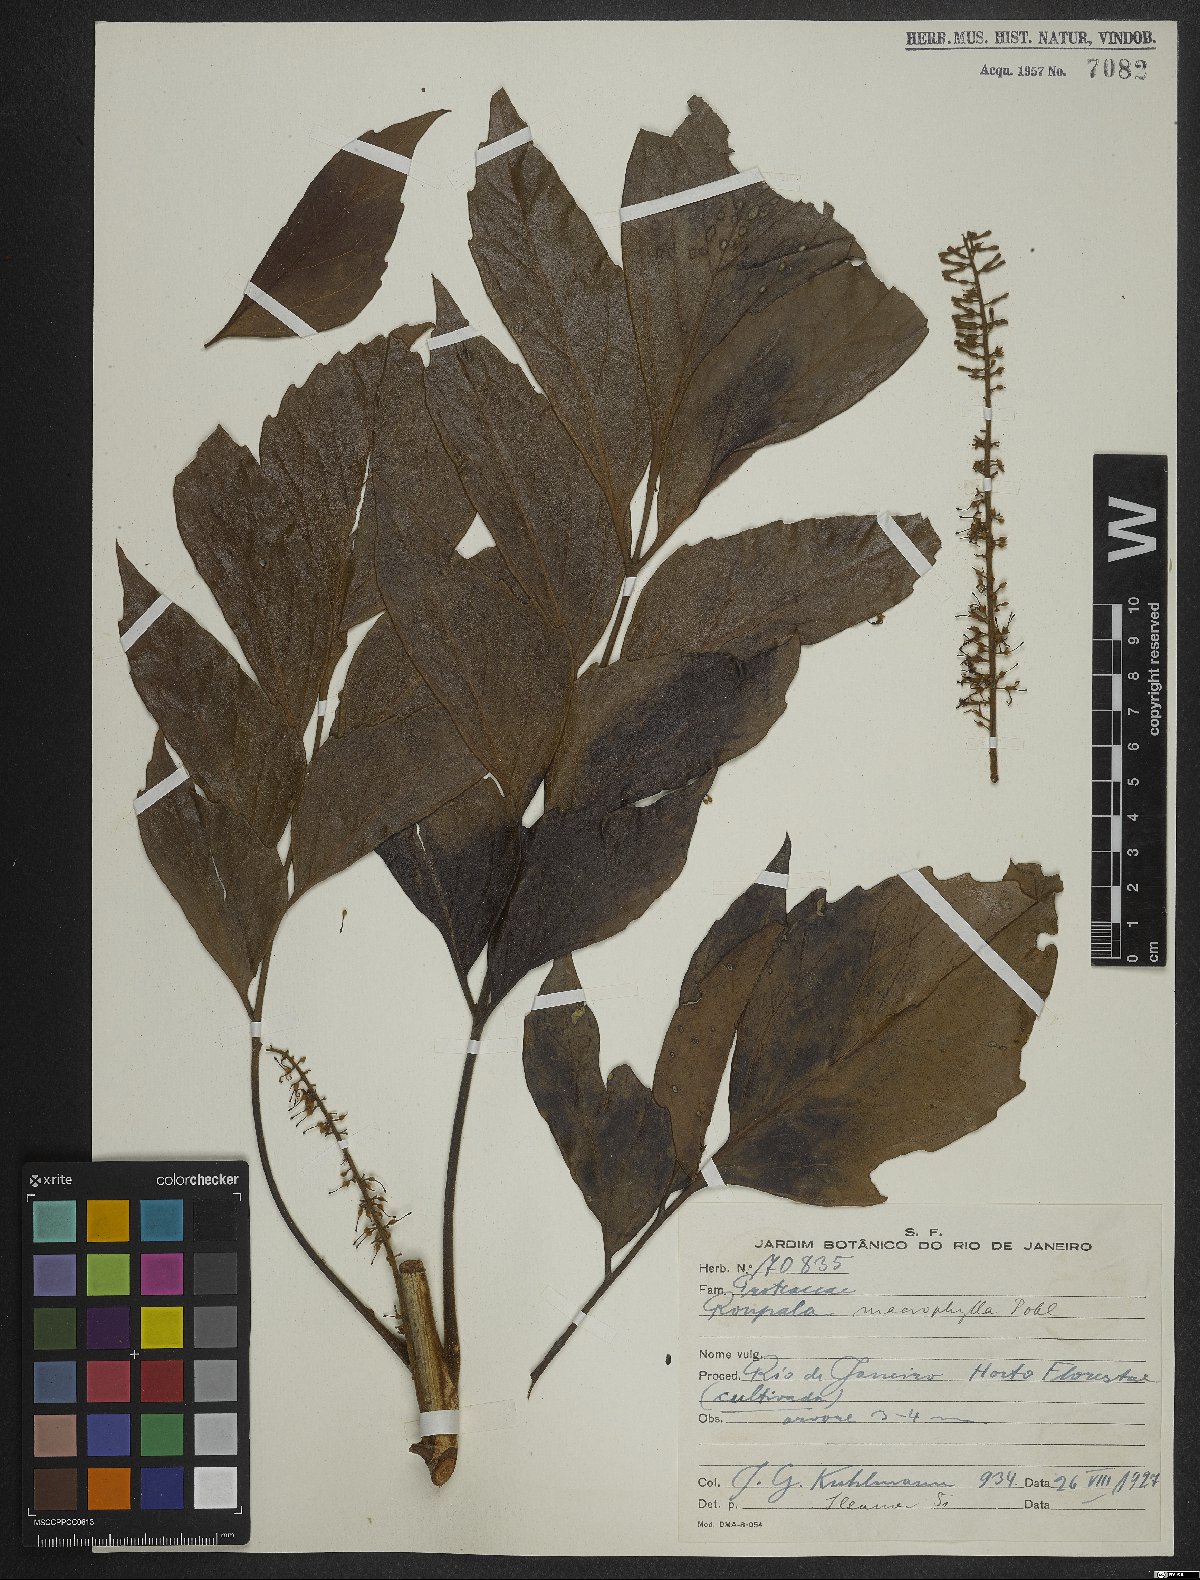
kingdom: Plantae
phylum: Tracheophyta
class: Magnoliopsida
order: Proteales
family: Proteaceae
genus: Roupala
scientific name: Roupala montana
